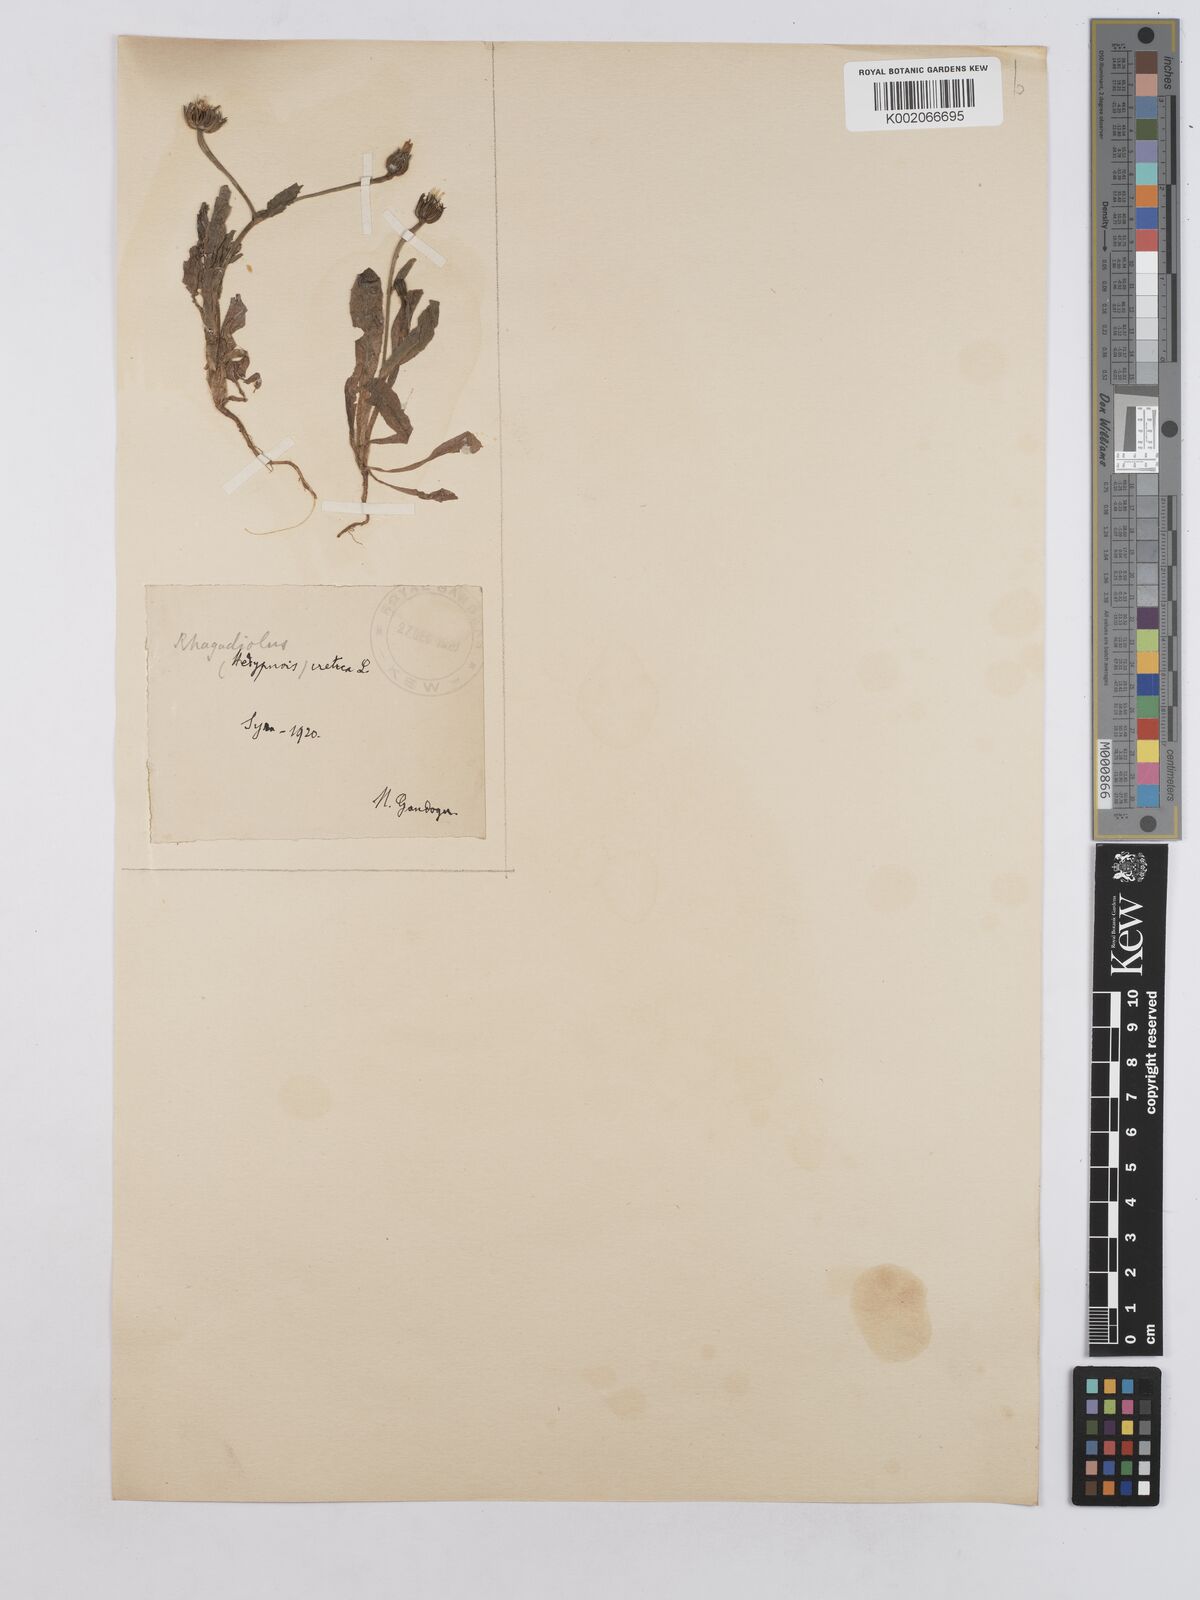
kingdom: Plantae
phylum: Tracheophyta
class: Magnoliopsida
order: Asterales
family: Asteraceae
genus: Hedypnois
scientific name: Hedypnois rhagadioloides
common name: Cretan weed
